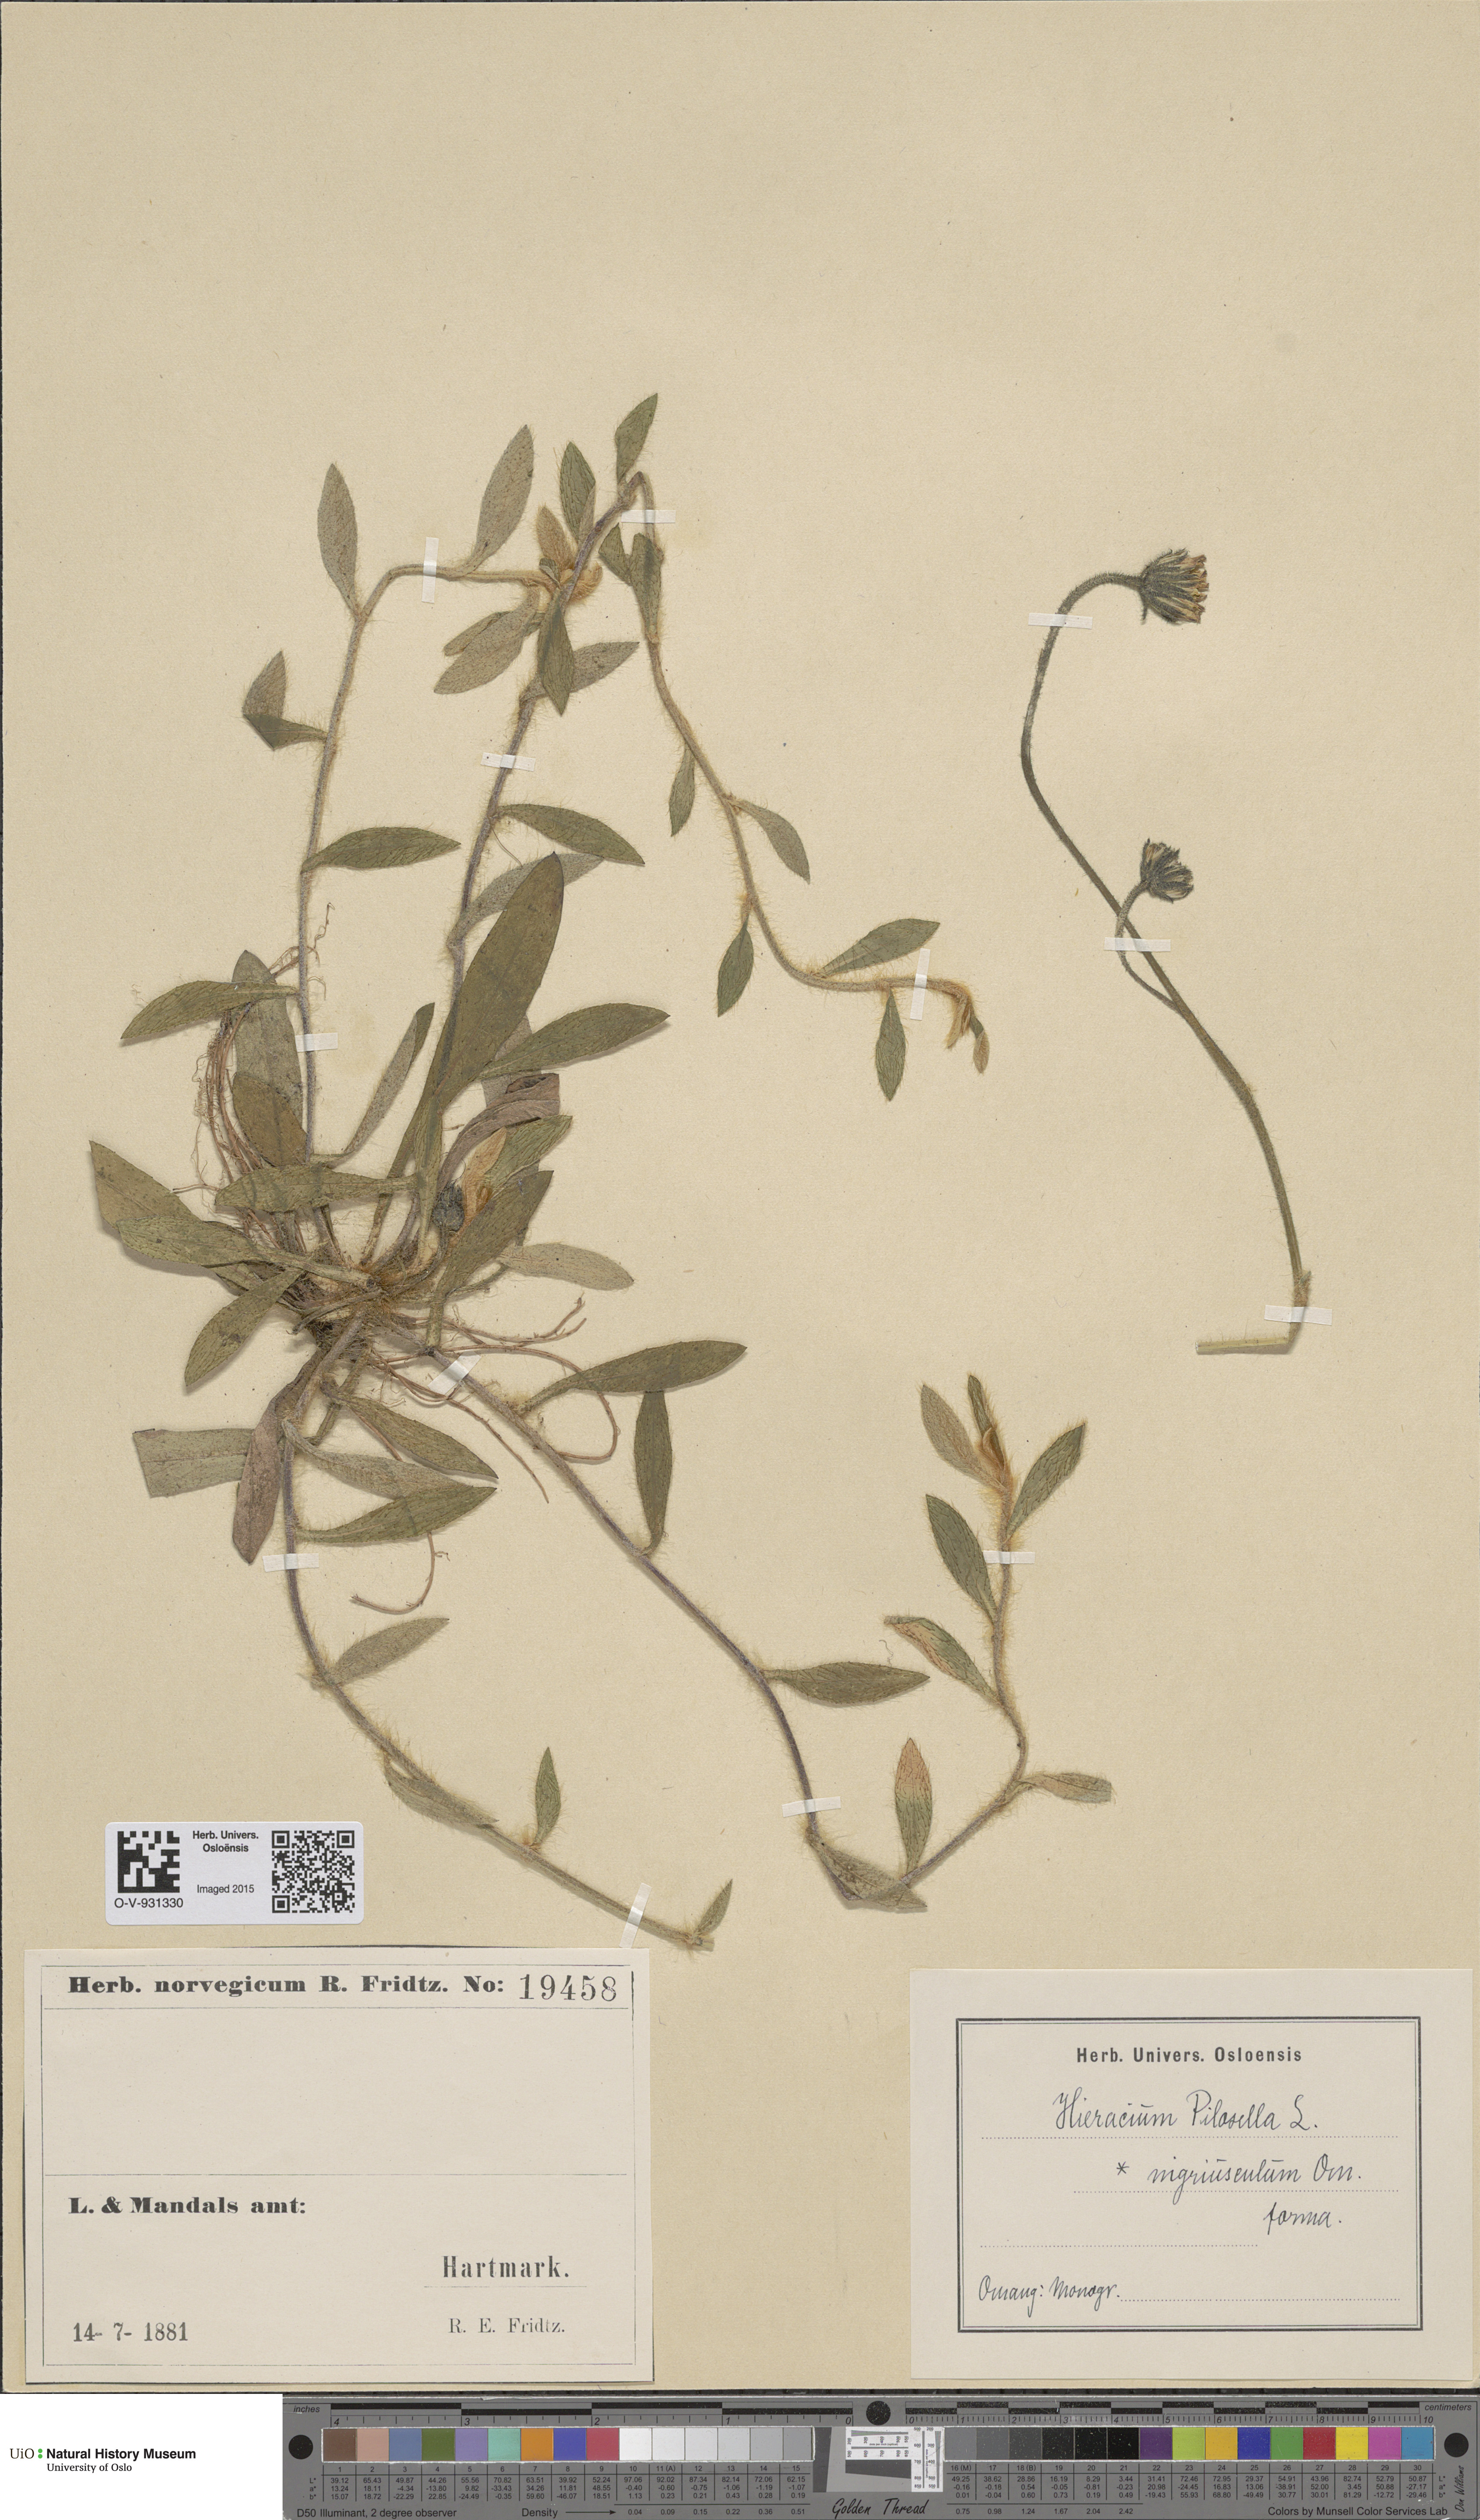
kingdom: Plantae
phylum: Tracheophyta
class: Magnoliopsida
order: Asterales
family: Asteraceae
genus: Pilosella
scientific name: Pilosella officinarum
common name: Mouse-ear hawkweed
